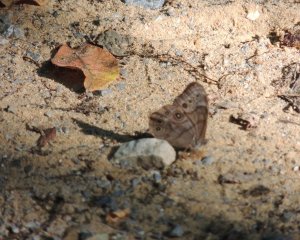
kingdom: Animalia
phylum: Arthropoda
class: Insecta
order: Lepidoptera
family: Nymphalidae
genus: Lethe
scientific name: Lethe anthedon
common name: Northern Pearly-Eye
